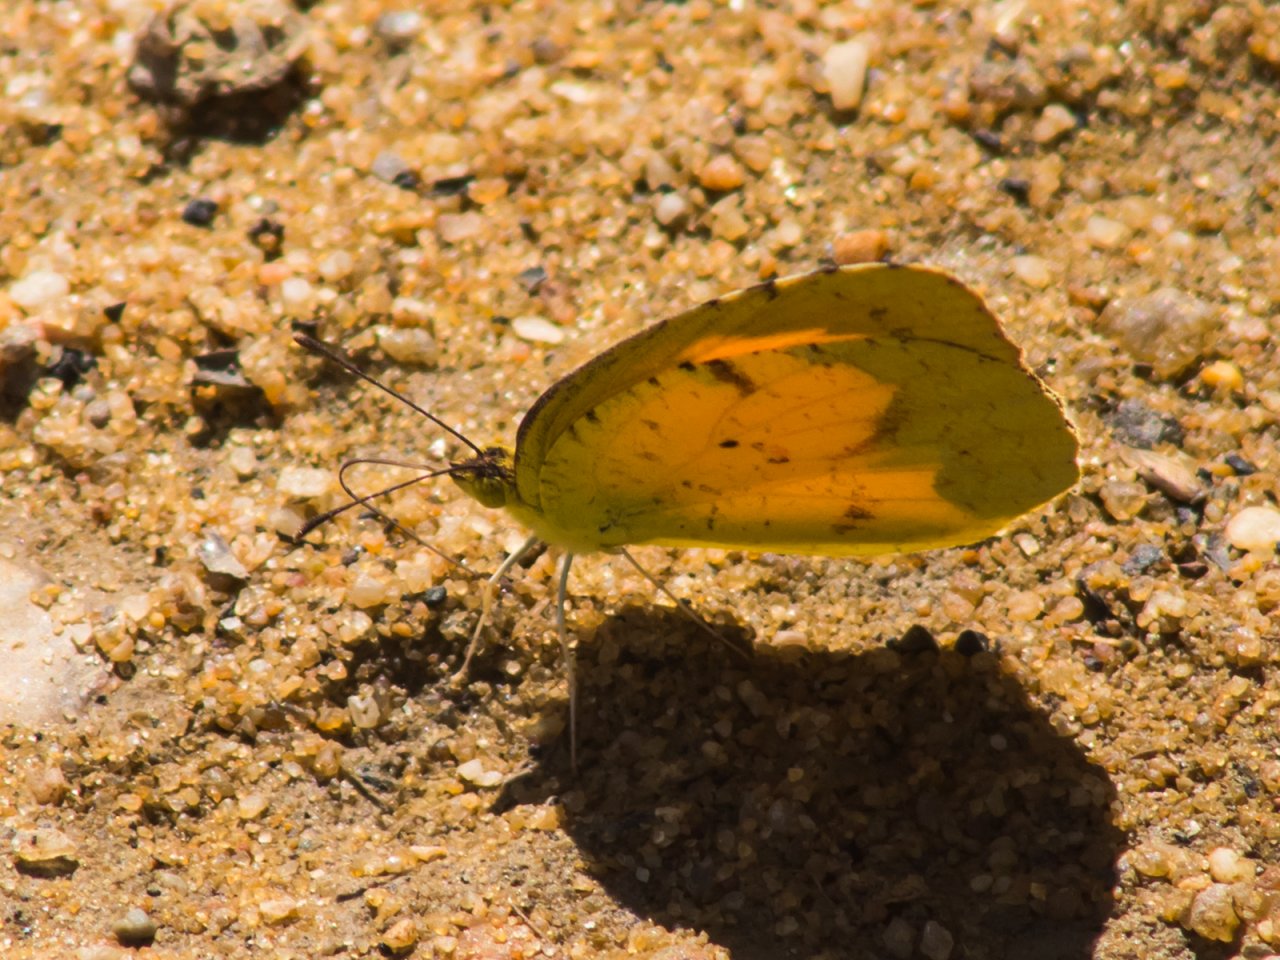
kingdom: Animalia
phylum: Arthropoda
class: Insecta
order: Lepidoptera
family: Pieridae
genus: Abaeis
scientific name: Abaeis nicippe
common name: Sleepy Orange
